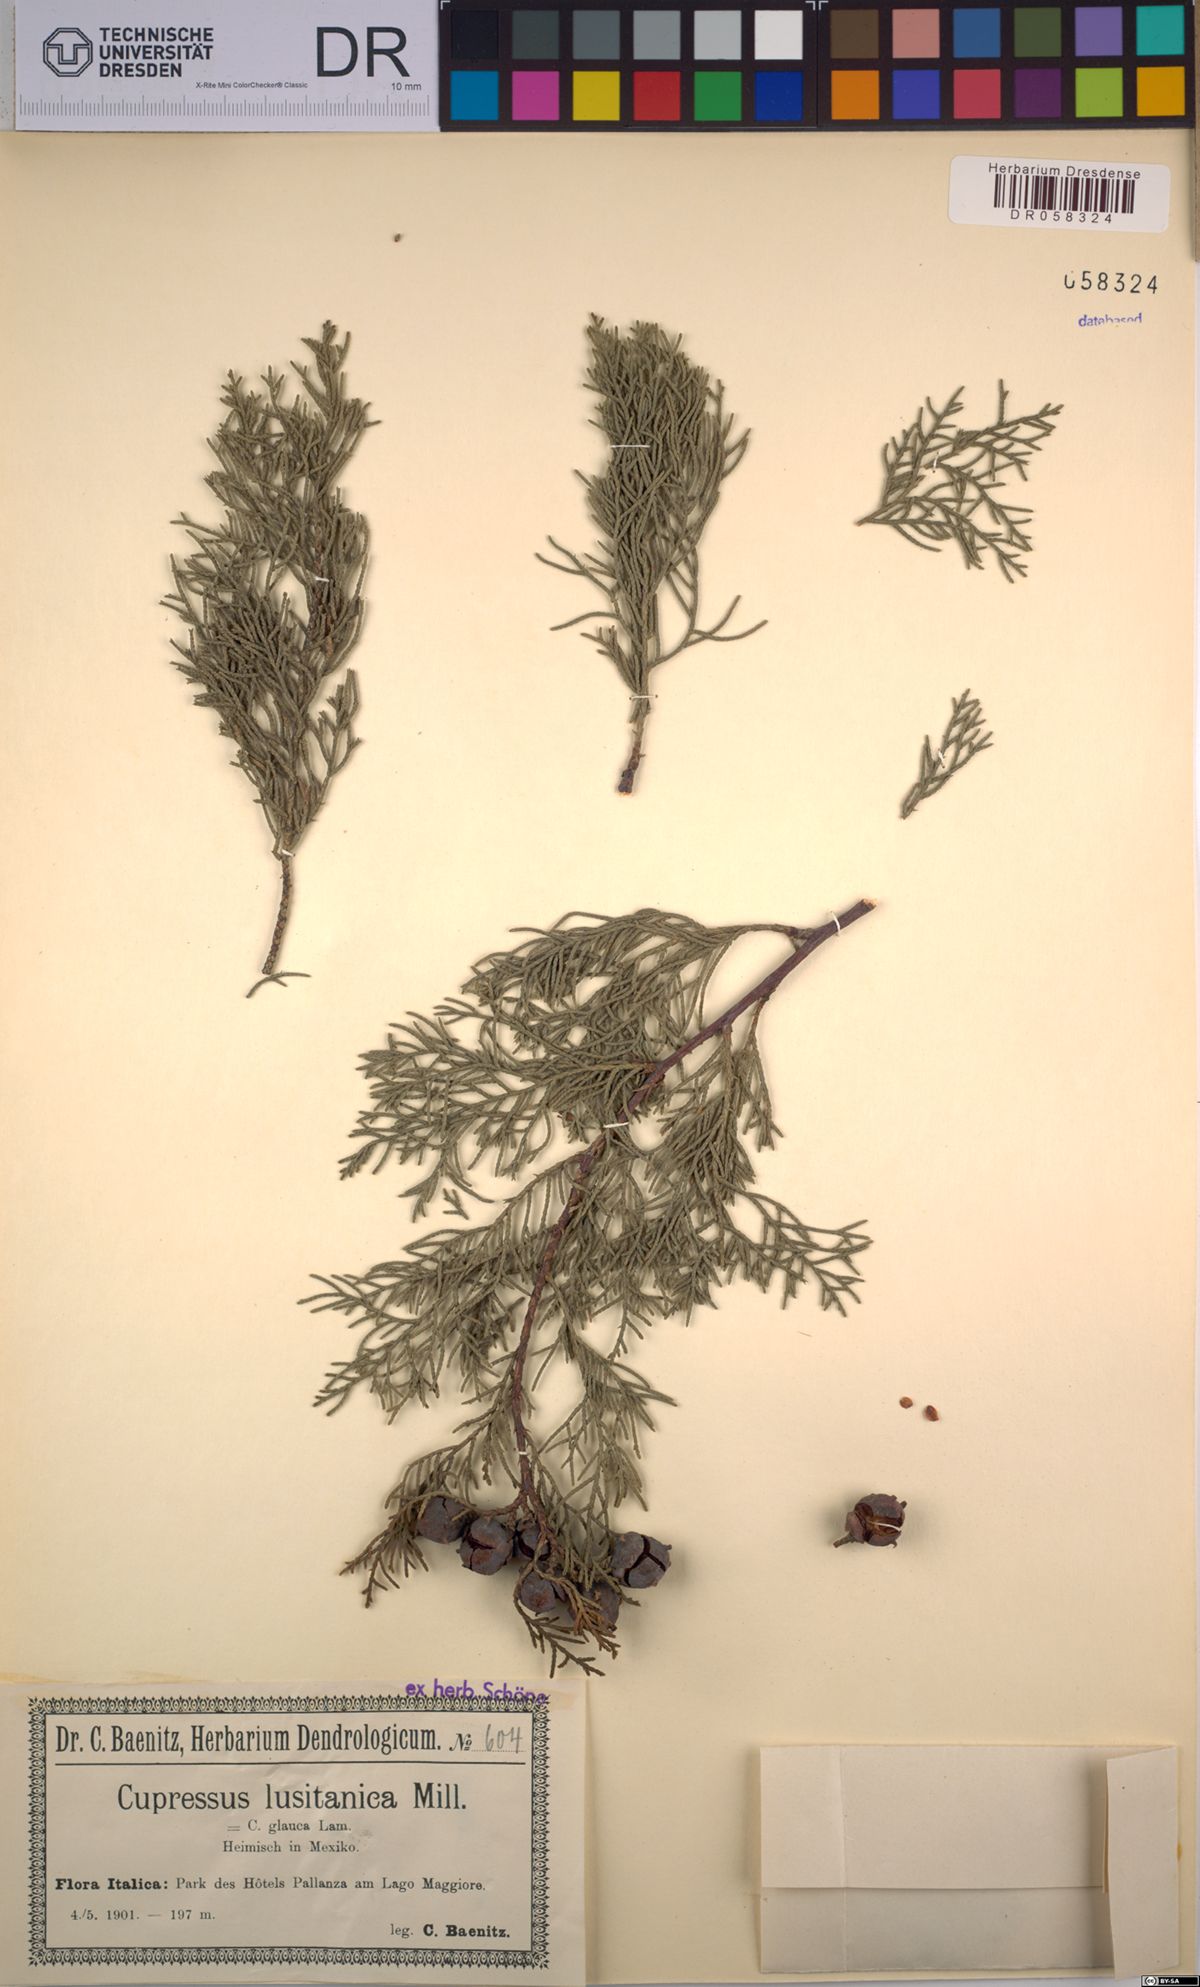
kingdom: Plantae
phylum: Tracheophyta
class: Pinopsida
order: Pinales
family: Cupressaceae
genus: Cupressus
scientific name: Cupressus lusitanica
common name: Mexican cypress
